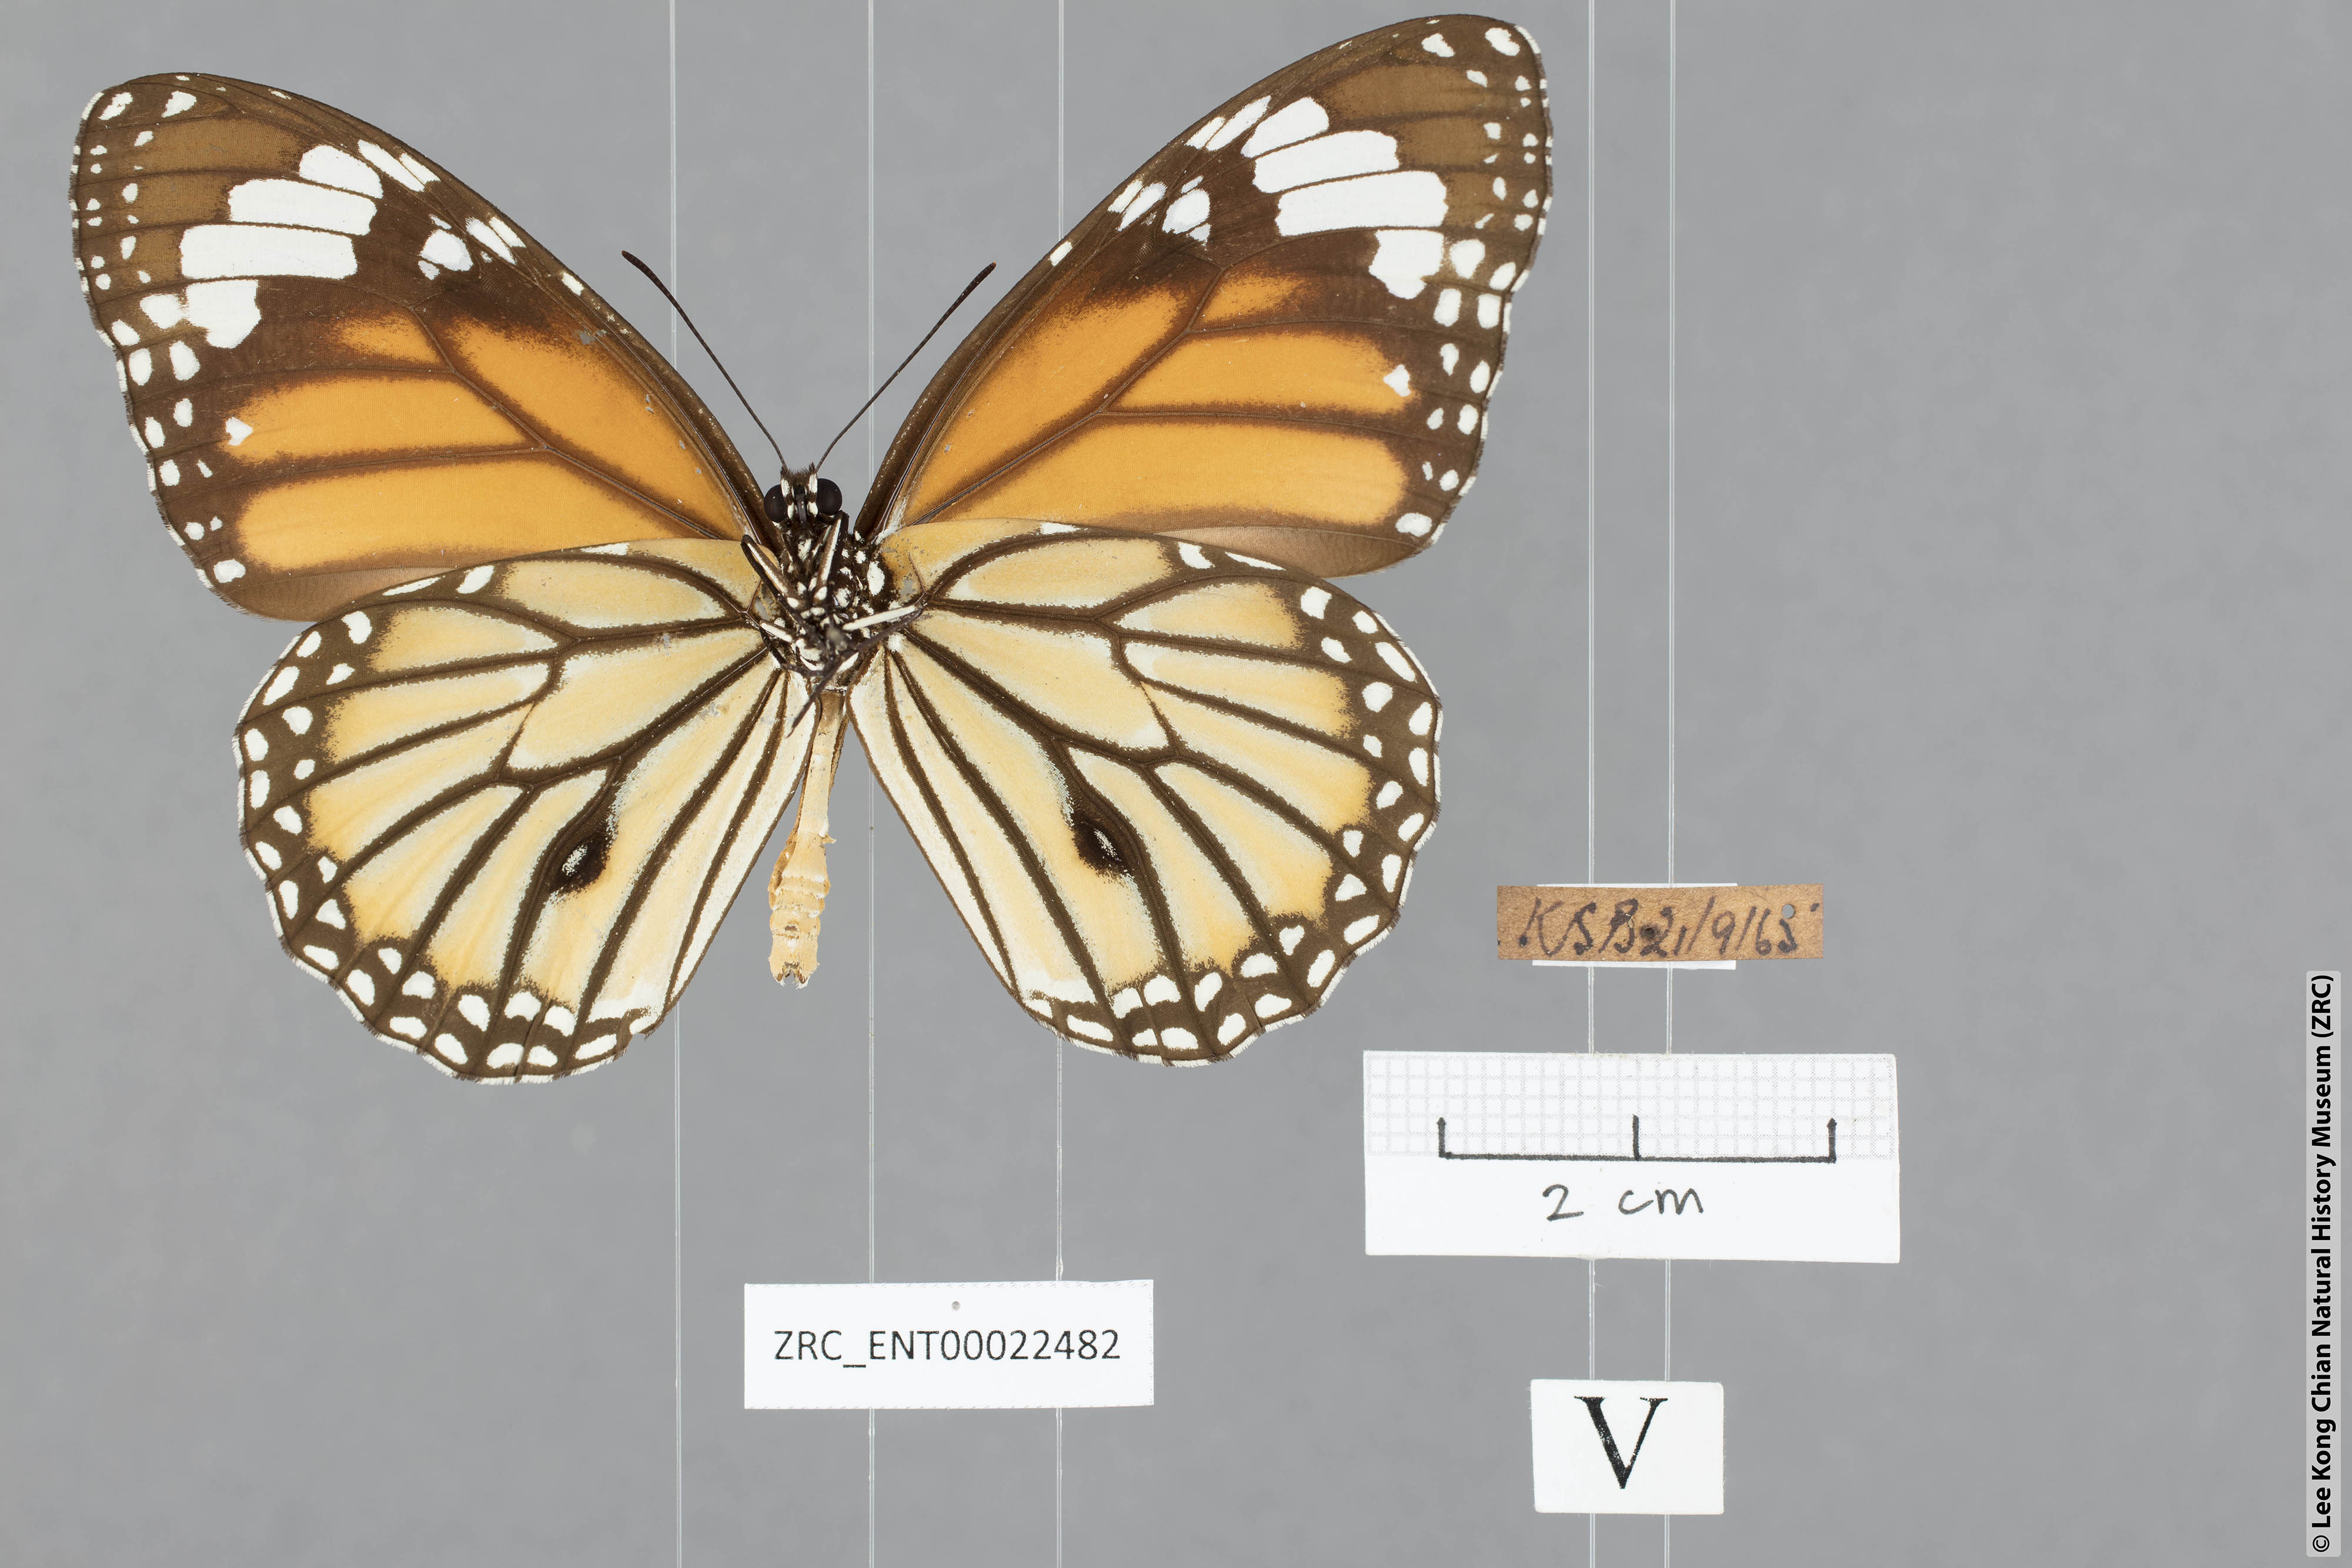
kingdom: Animalia
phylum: Arthropoda
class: Insecta
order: Lepidoptera
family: Nymphalidae
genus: Danaus
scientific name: Danaus genutia
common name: Common tiger butterfly
